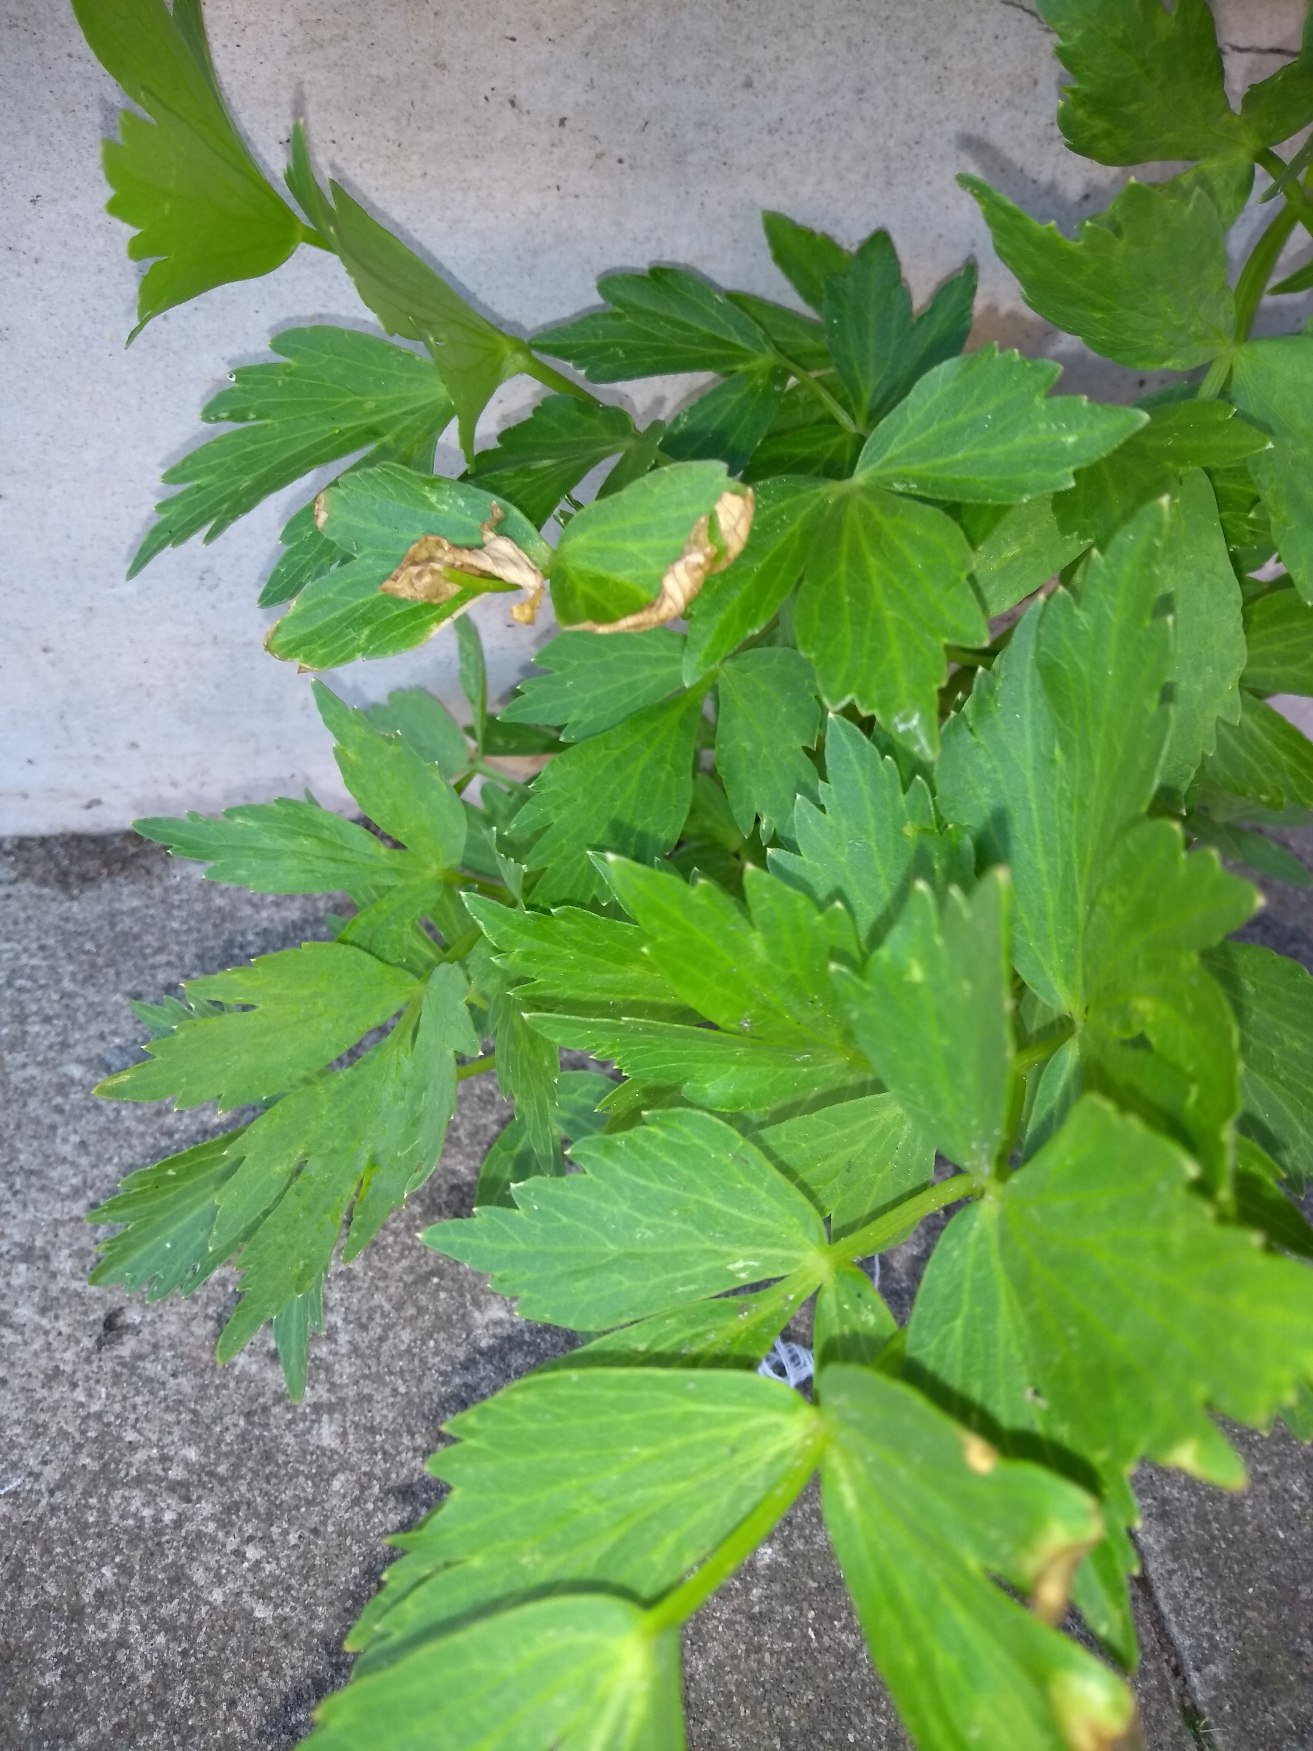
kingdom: Plantae
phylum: Tracheophyta
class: Magnoliopsida
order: Apiales
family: Apiaceae
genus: Levisticum
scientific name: Levisticum officinale
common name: Løvstikke
